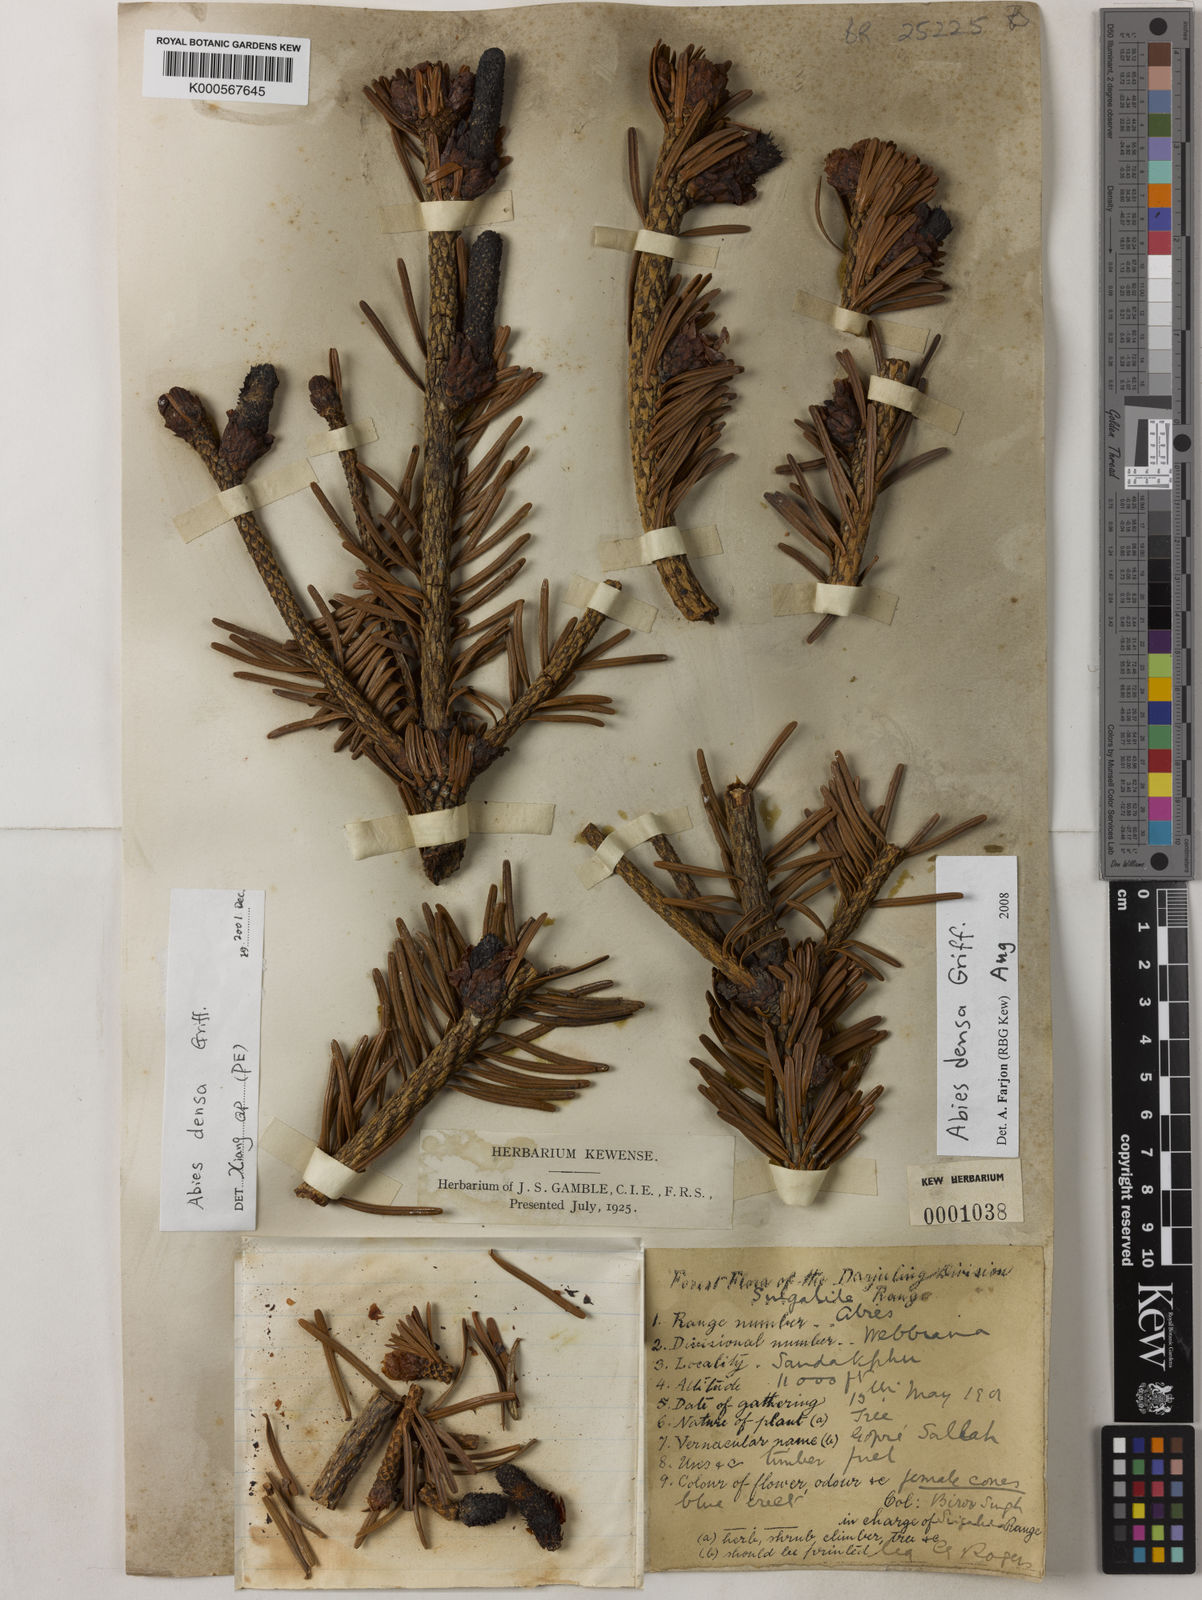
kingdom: Plantae
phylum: Tracheophyta
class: Pinopsida
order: Pinales
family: Pinaceae
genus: Abies
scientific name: Abies densa
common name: Sikkim fir
